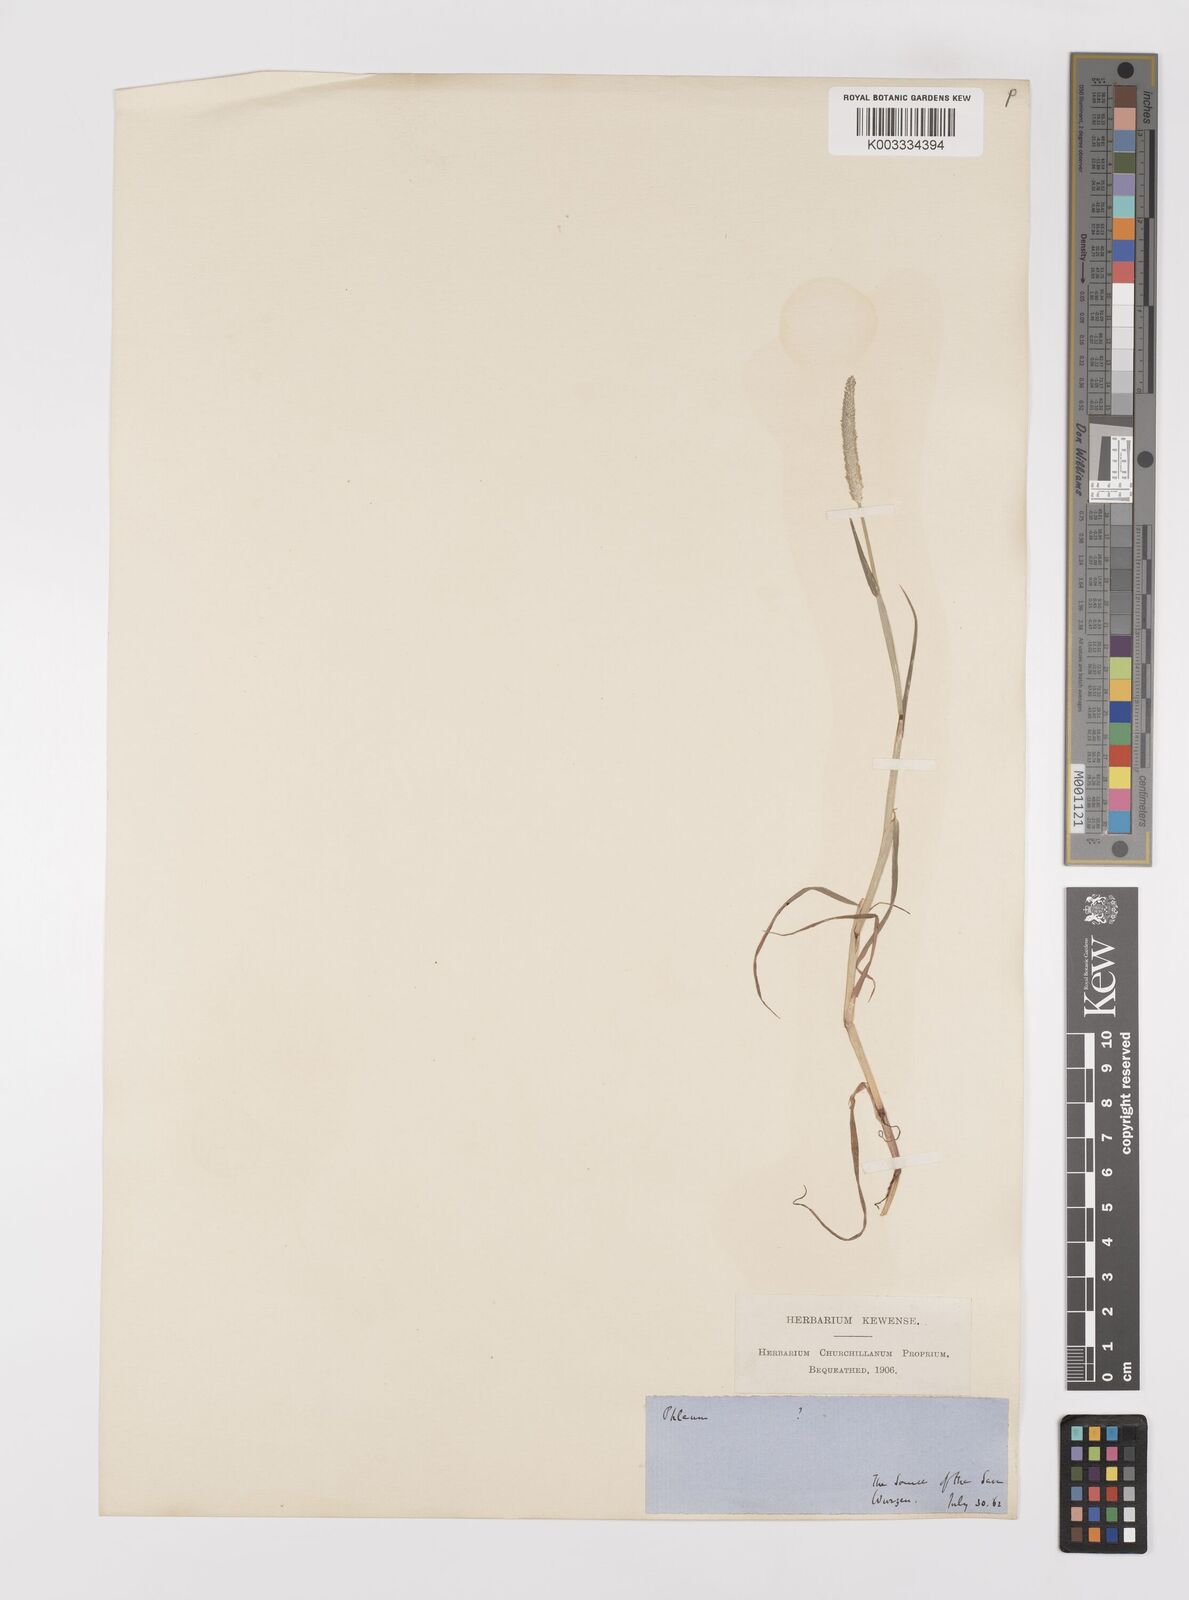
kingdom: Plantae
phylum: Tracheophyta
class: Liliopsida
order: Poales
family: Poaceae
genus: Alopecurus
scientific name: Alopecurus aequalis
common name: Orange foxtail
